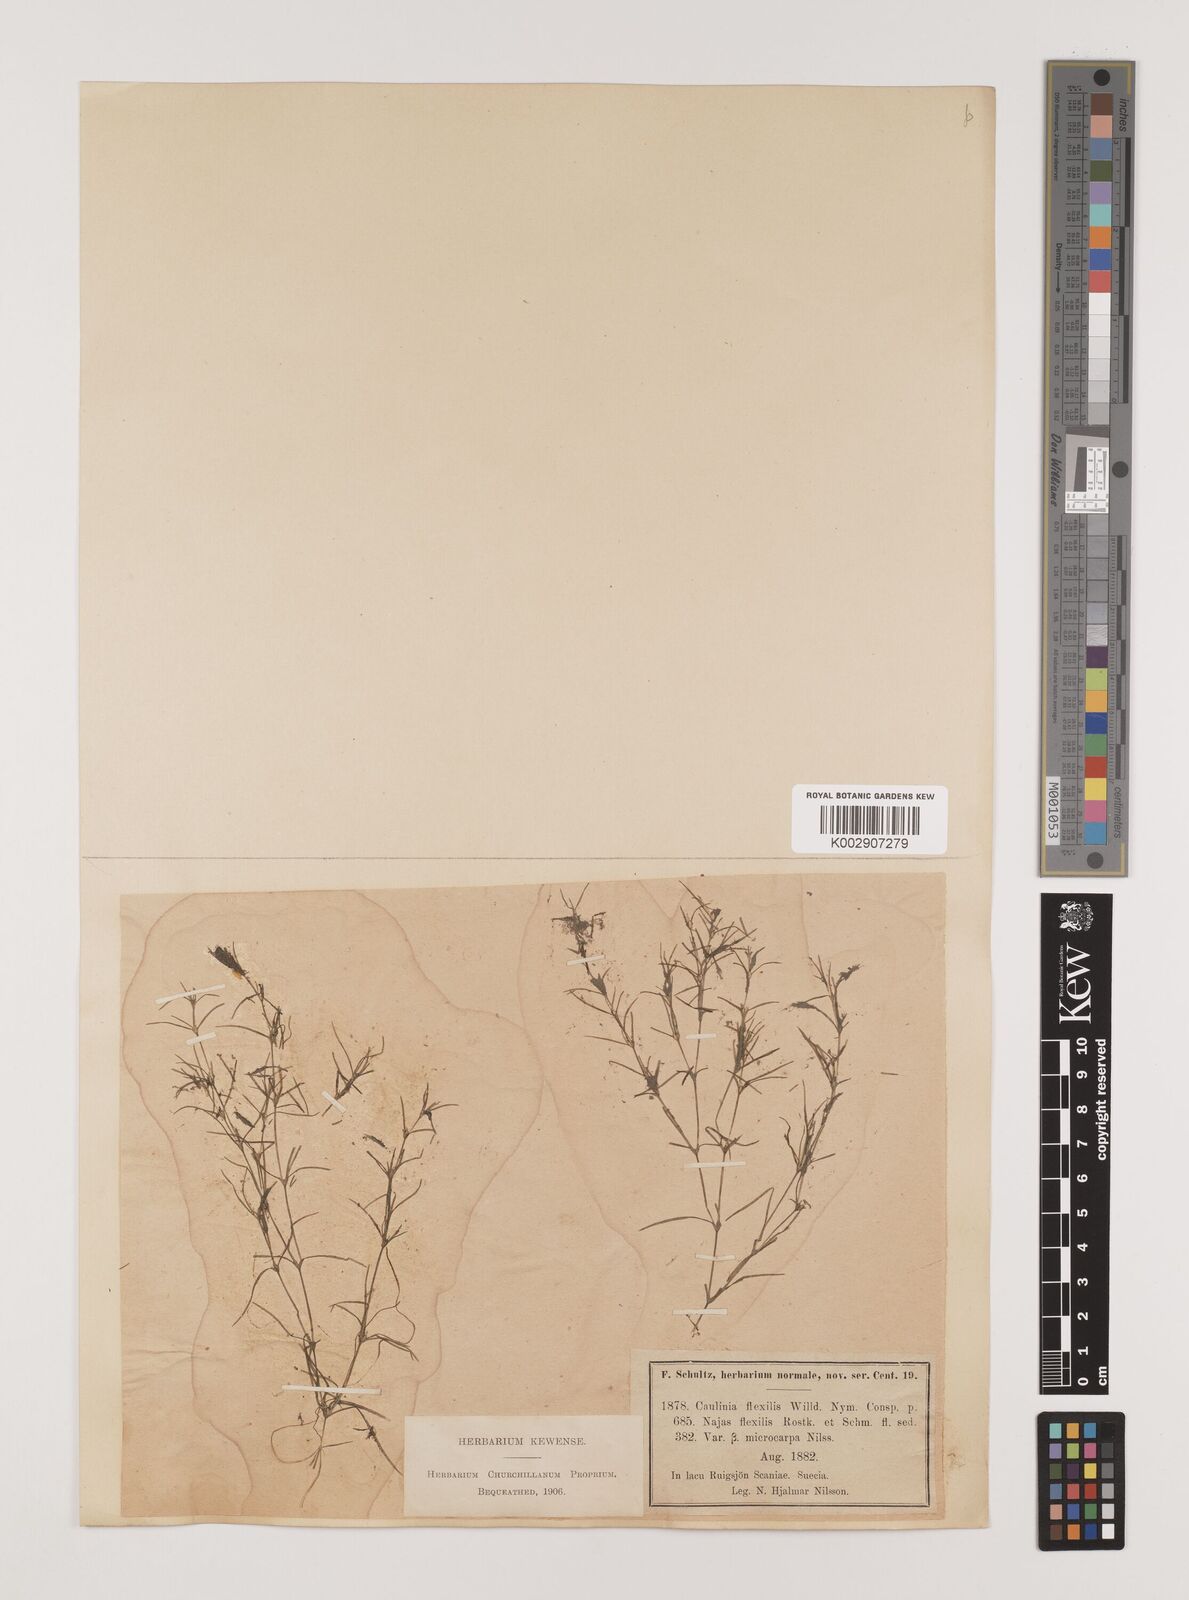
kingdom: Plantae
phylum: Tracheophyta
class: Liliopsida
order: Alismatales
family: Hydrocharitaceae
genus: Najas
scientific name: Najas flexilis
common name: Slender naiad
